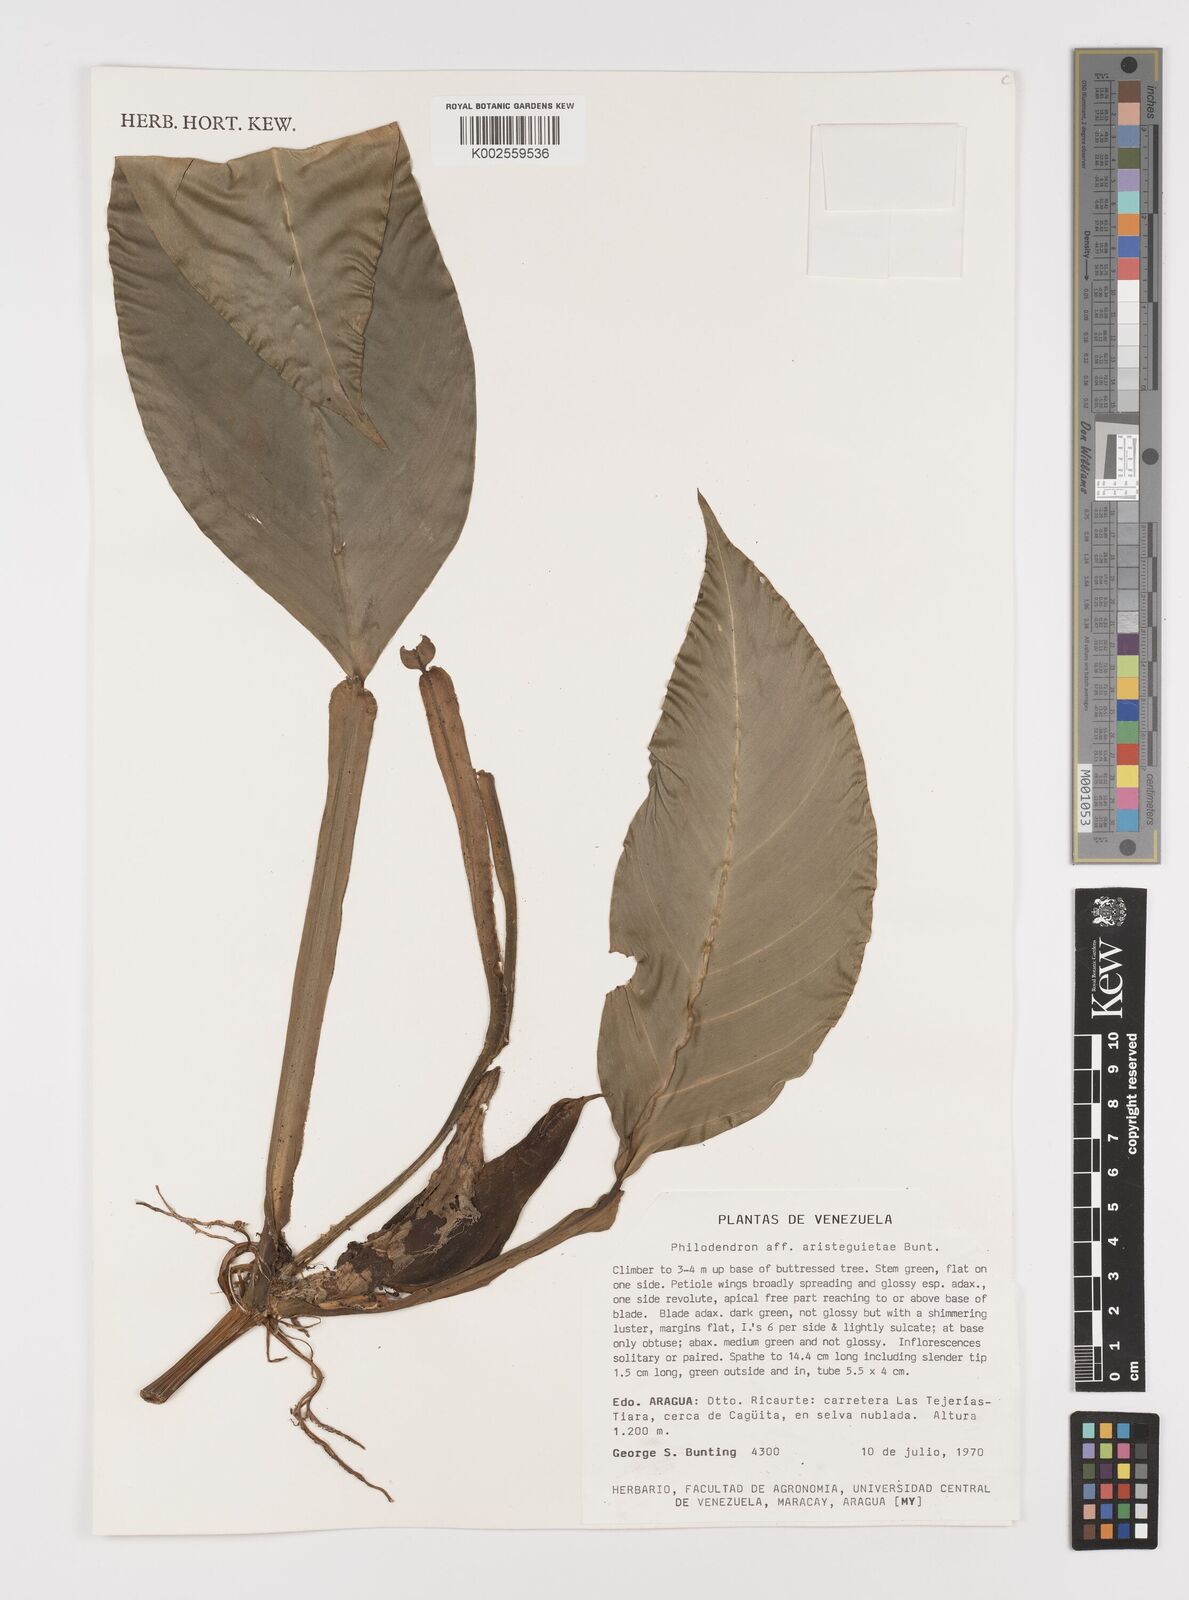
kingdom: Plantae
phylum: Tracheophyta
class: Liliopsida
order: Alismatales
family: Araceae
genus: Philodendron
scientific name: Philodendron aristeguietae
